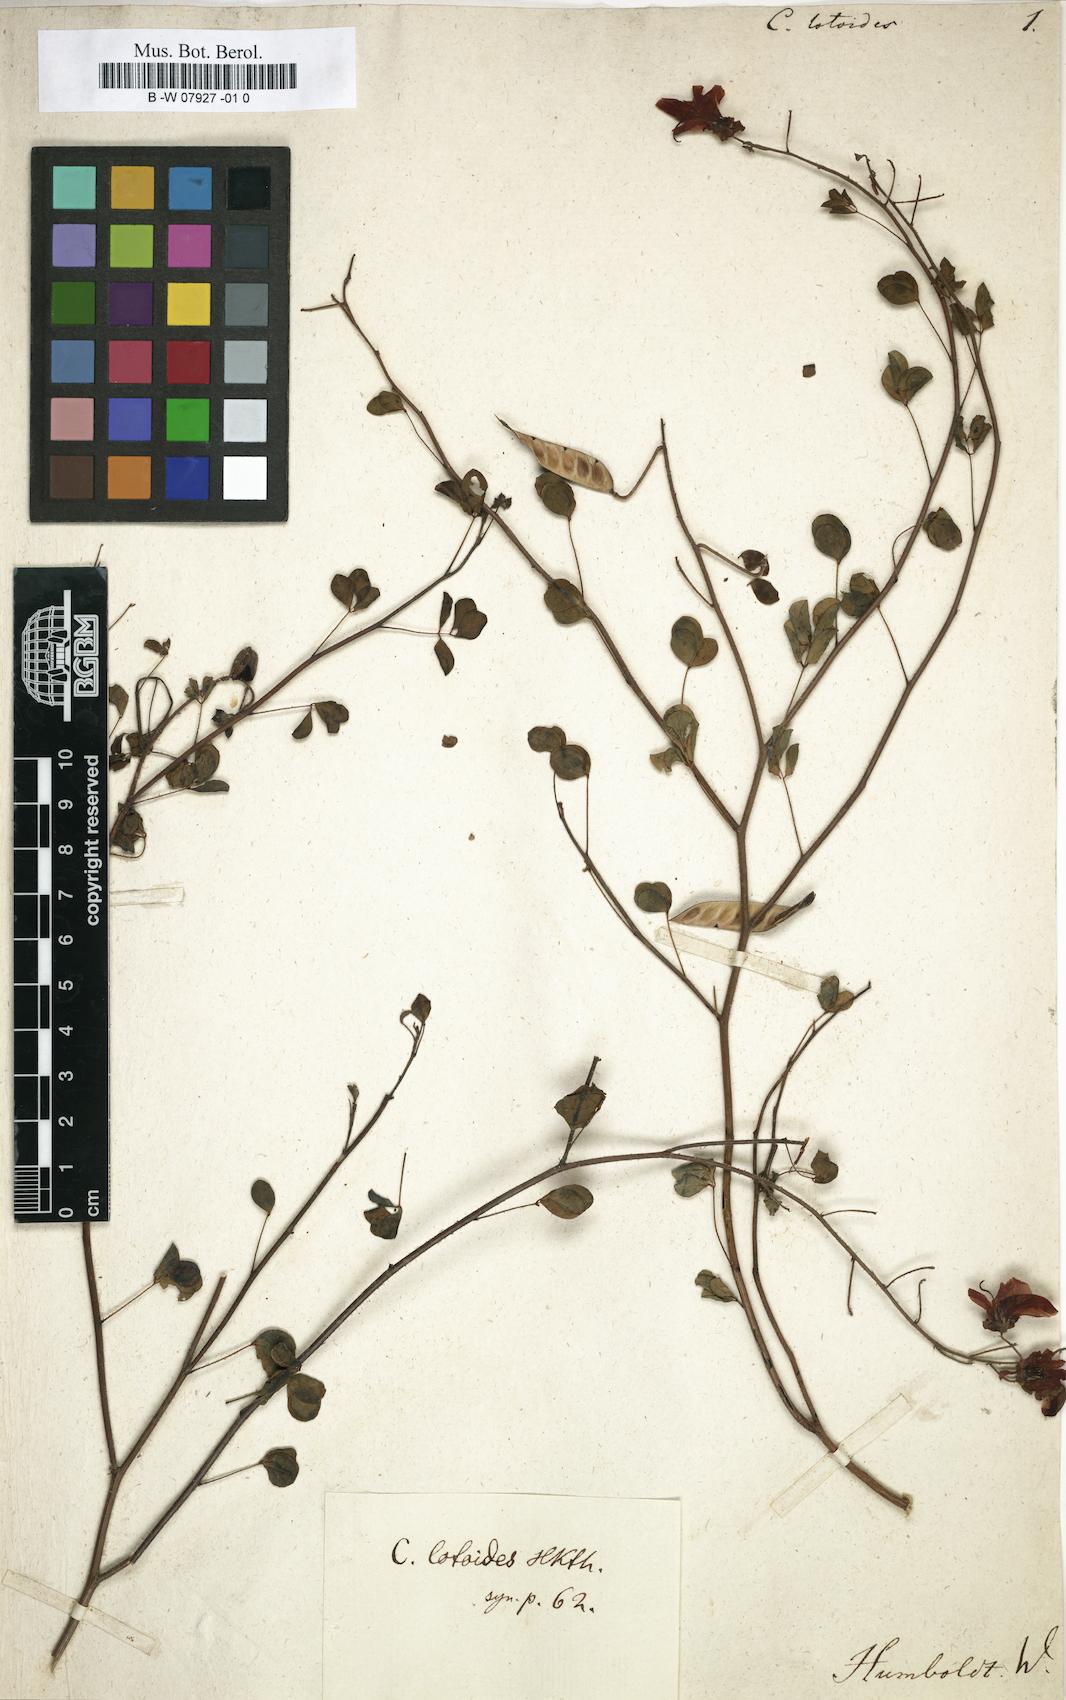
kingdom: Plantae
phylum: Tracheophyta
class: Magnoliopsida
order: Fabales
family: Fabaceae
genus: Chamaecrista
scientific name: Chamaecrista hispidula
